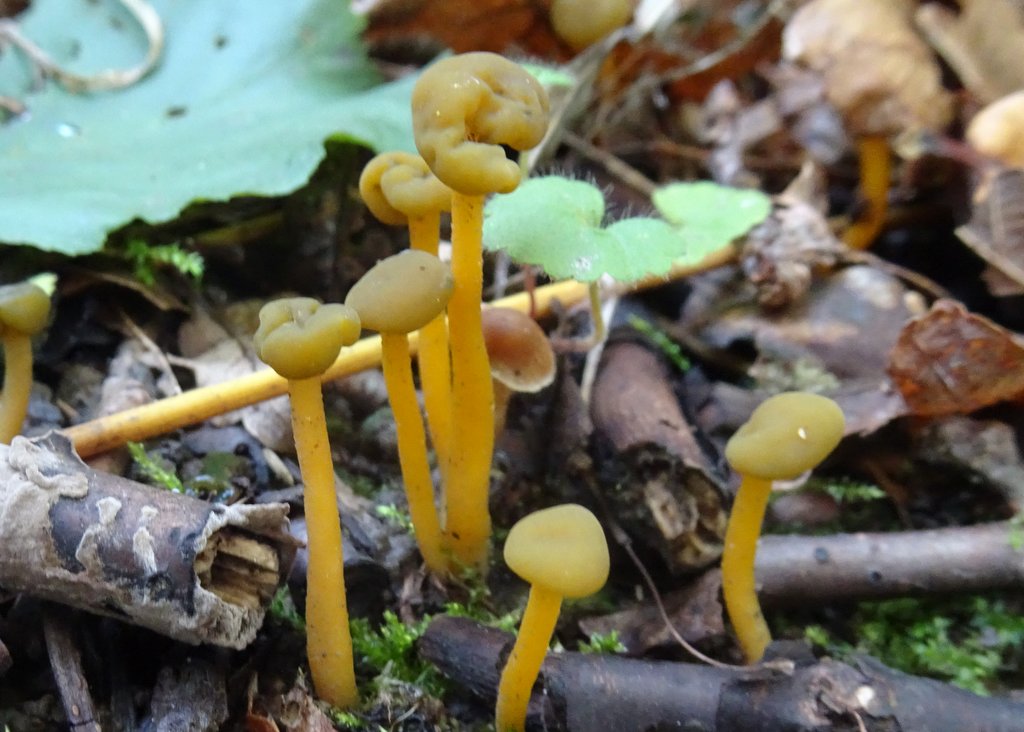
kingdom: Fungi
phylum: Ascomycota
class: Leotiomycetes
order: Leotiales
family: Leotiaceae
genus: Leotia
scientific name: Leotia lubrica
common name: ravsvamp
